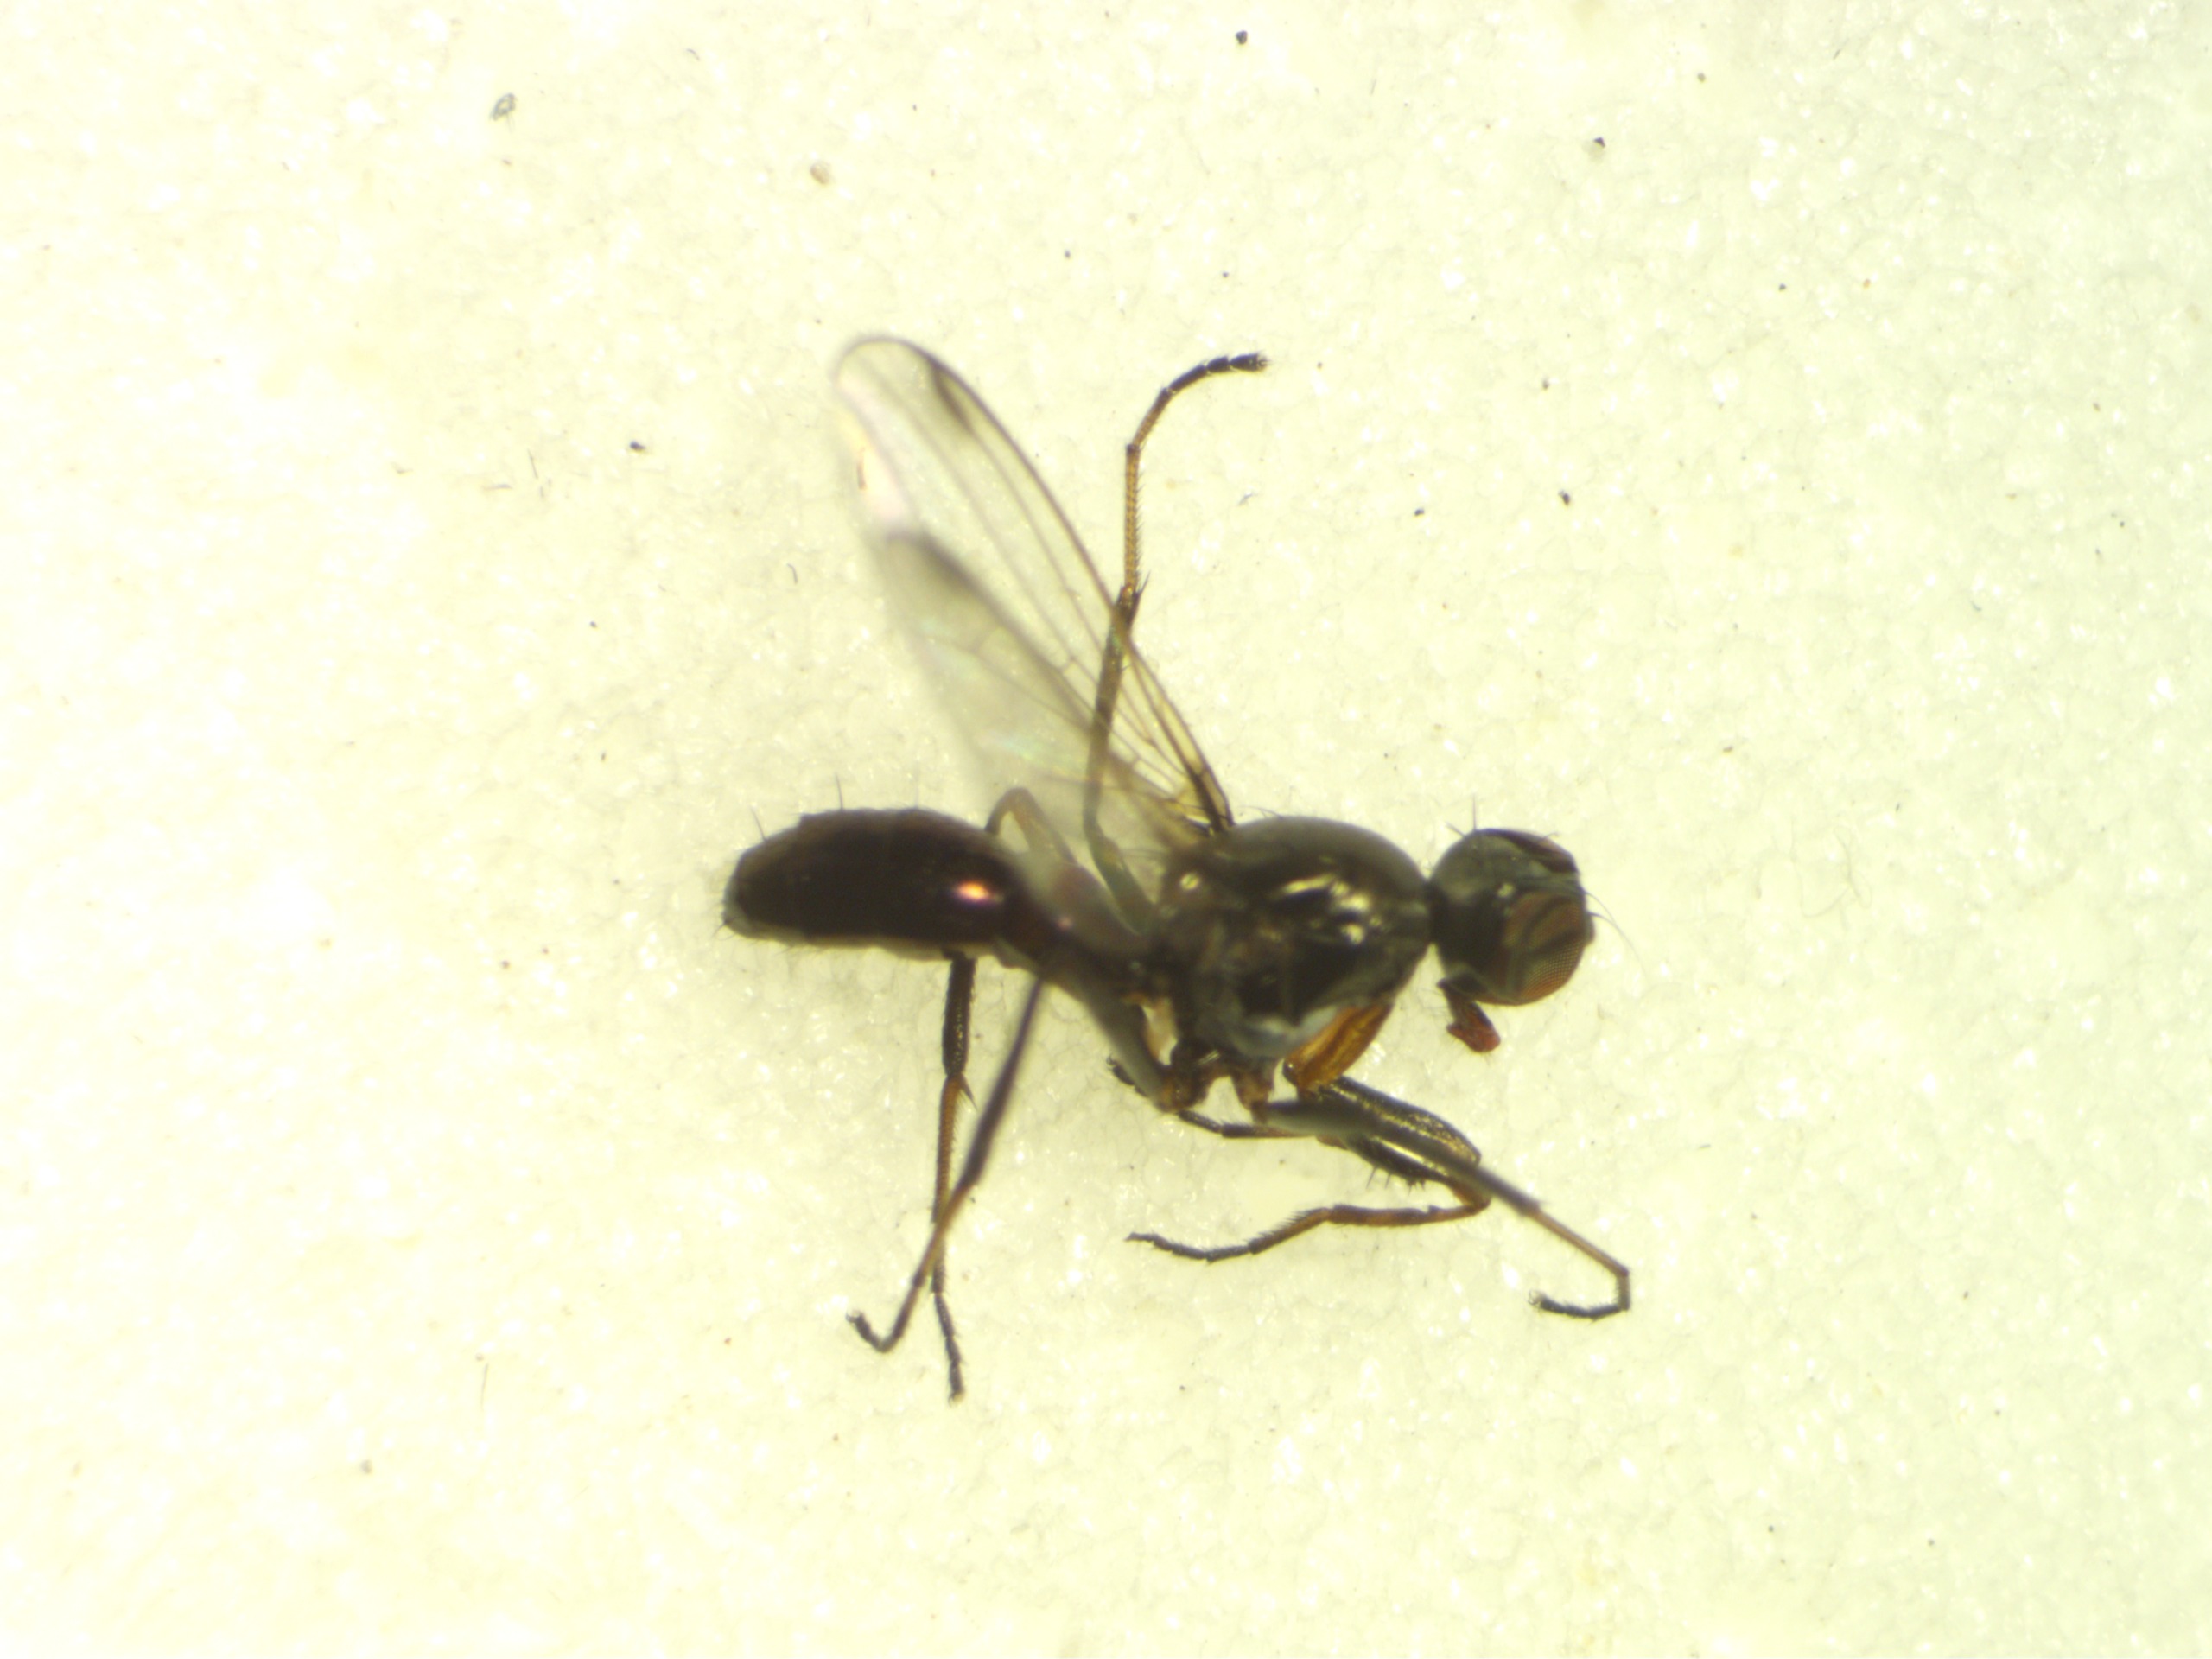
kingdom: Animalia
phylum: Arthropoda
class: Insecta
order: Diptera
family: Sepsidae
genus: Sepsis
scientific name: Sepsis cynipsea
